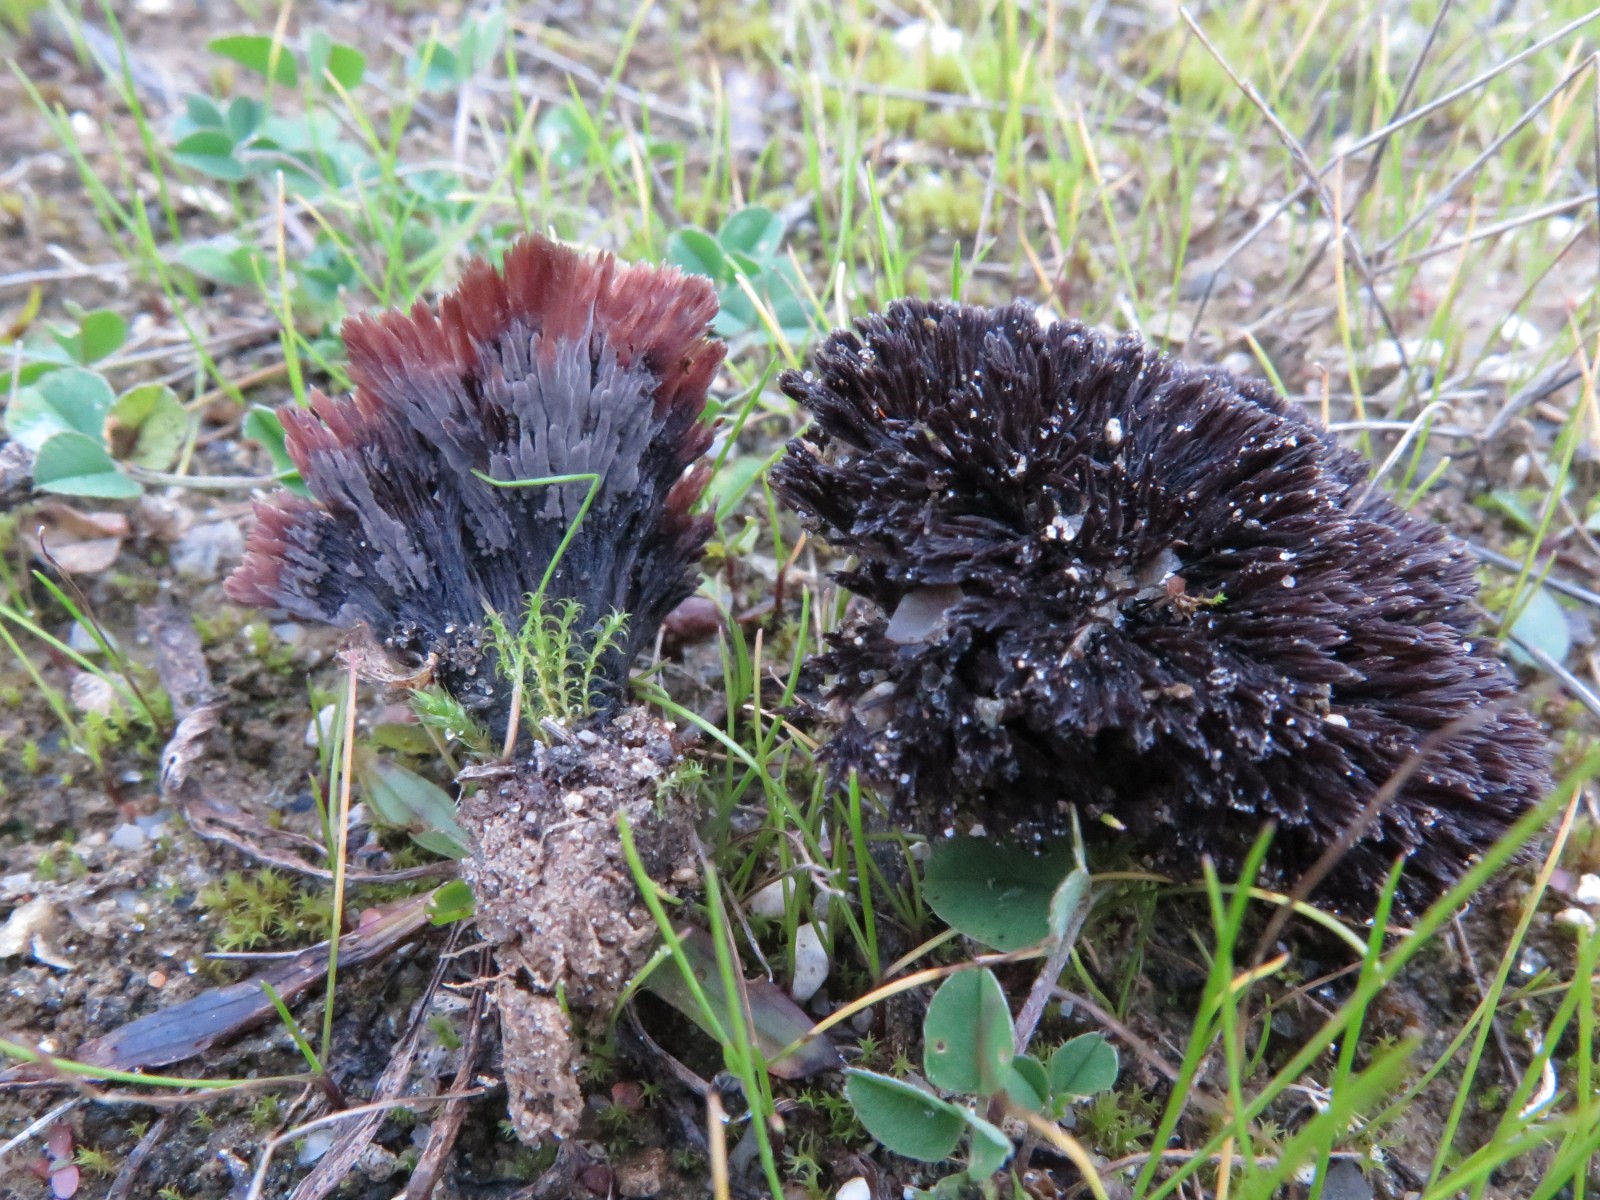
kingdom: Fungi
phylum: Basidiomycota
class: Agaricomycetes
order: Thelephorales
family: Thelephoraceae
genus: Thelephora
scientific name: Thelephora caryophyllea
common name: tragt-frynsesvamp
